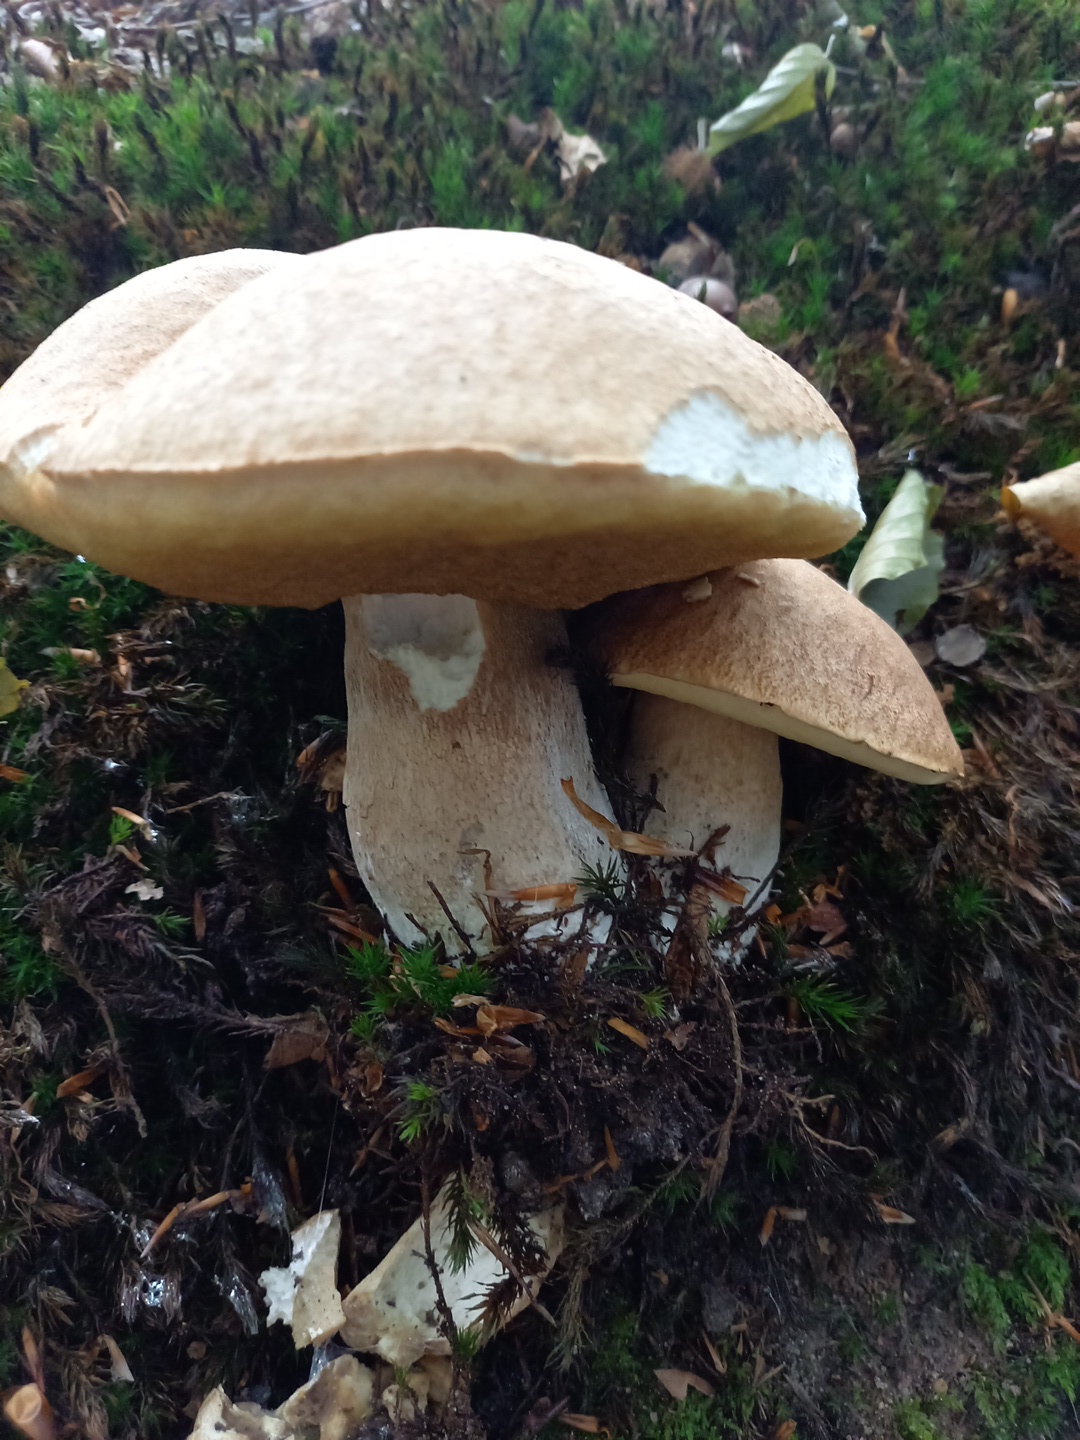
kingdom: Fungi
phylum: Basidiomycota
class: Agaricomycetes
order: Boletales
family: Boletaceae
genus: Boletus
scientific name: Boletus reticulatus
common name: sommer-rørhat
